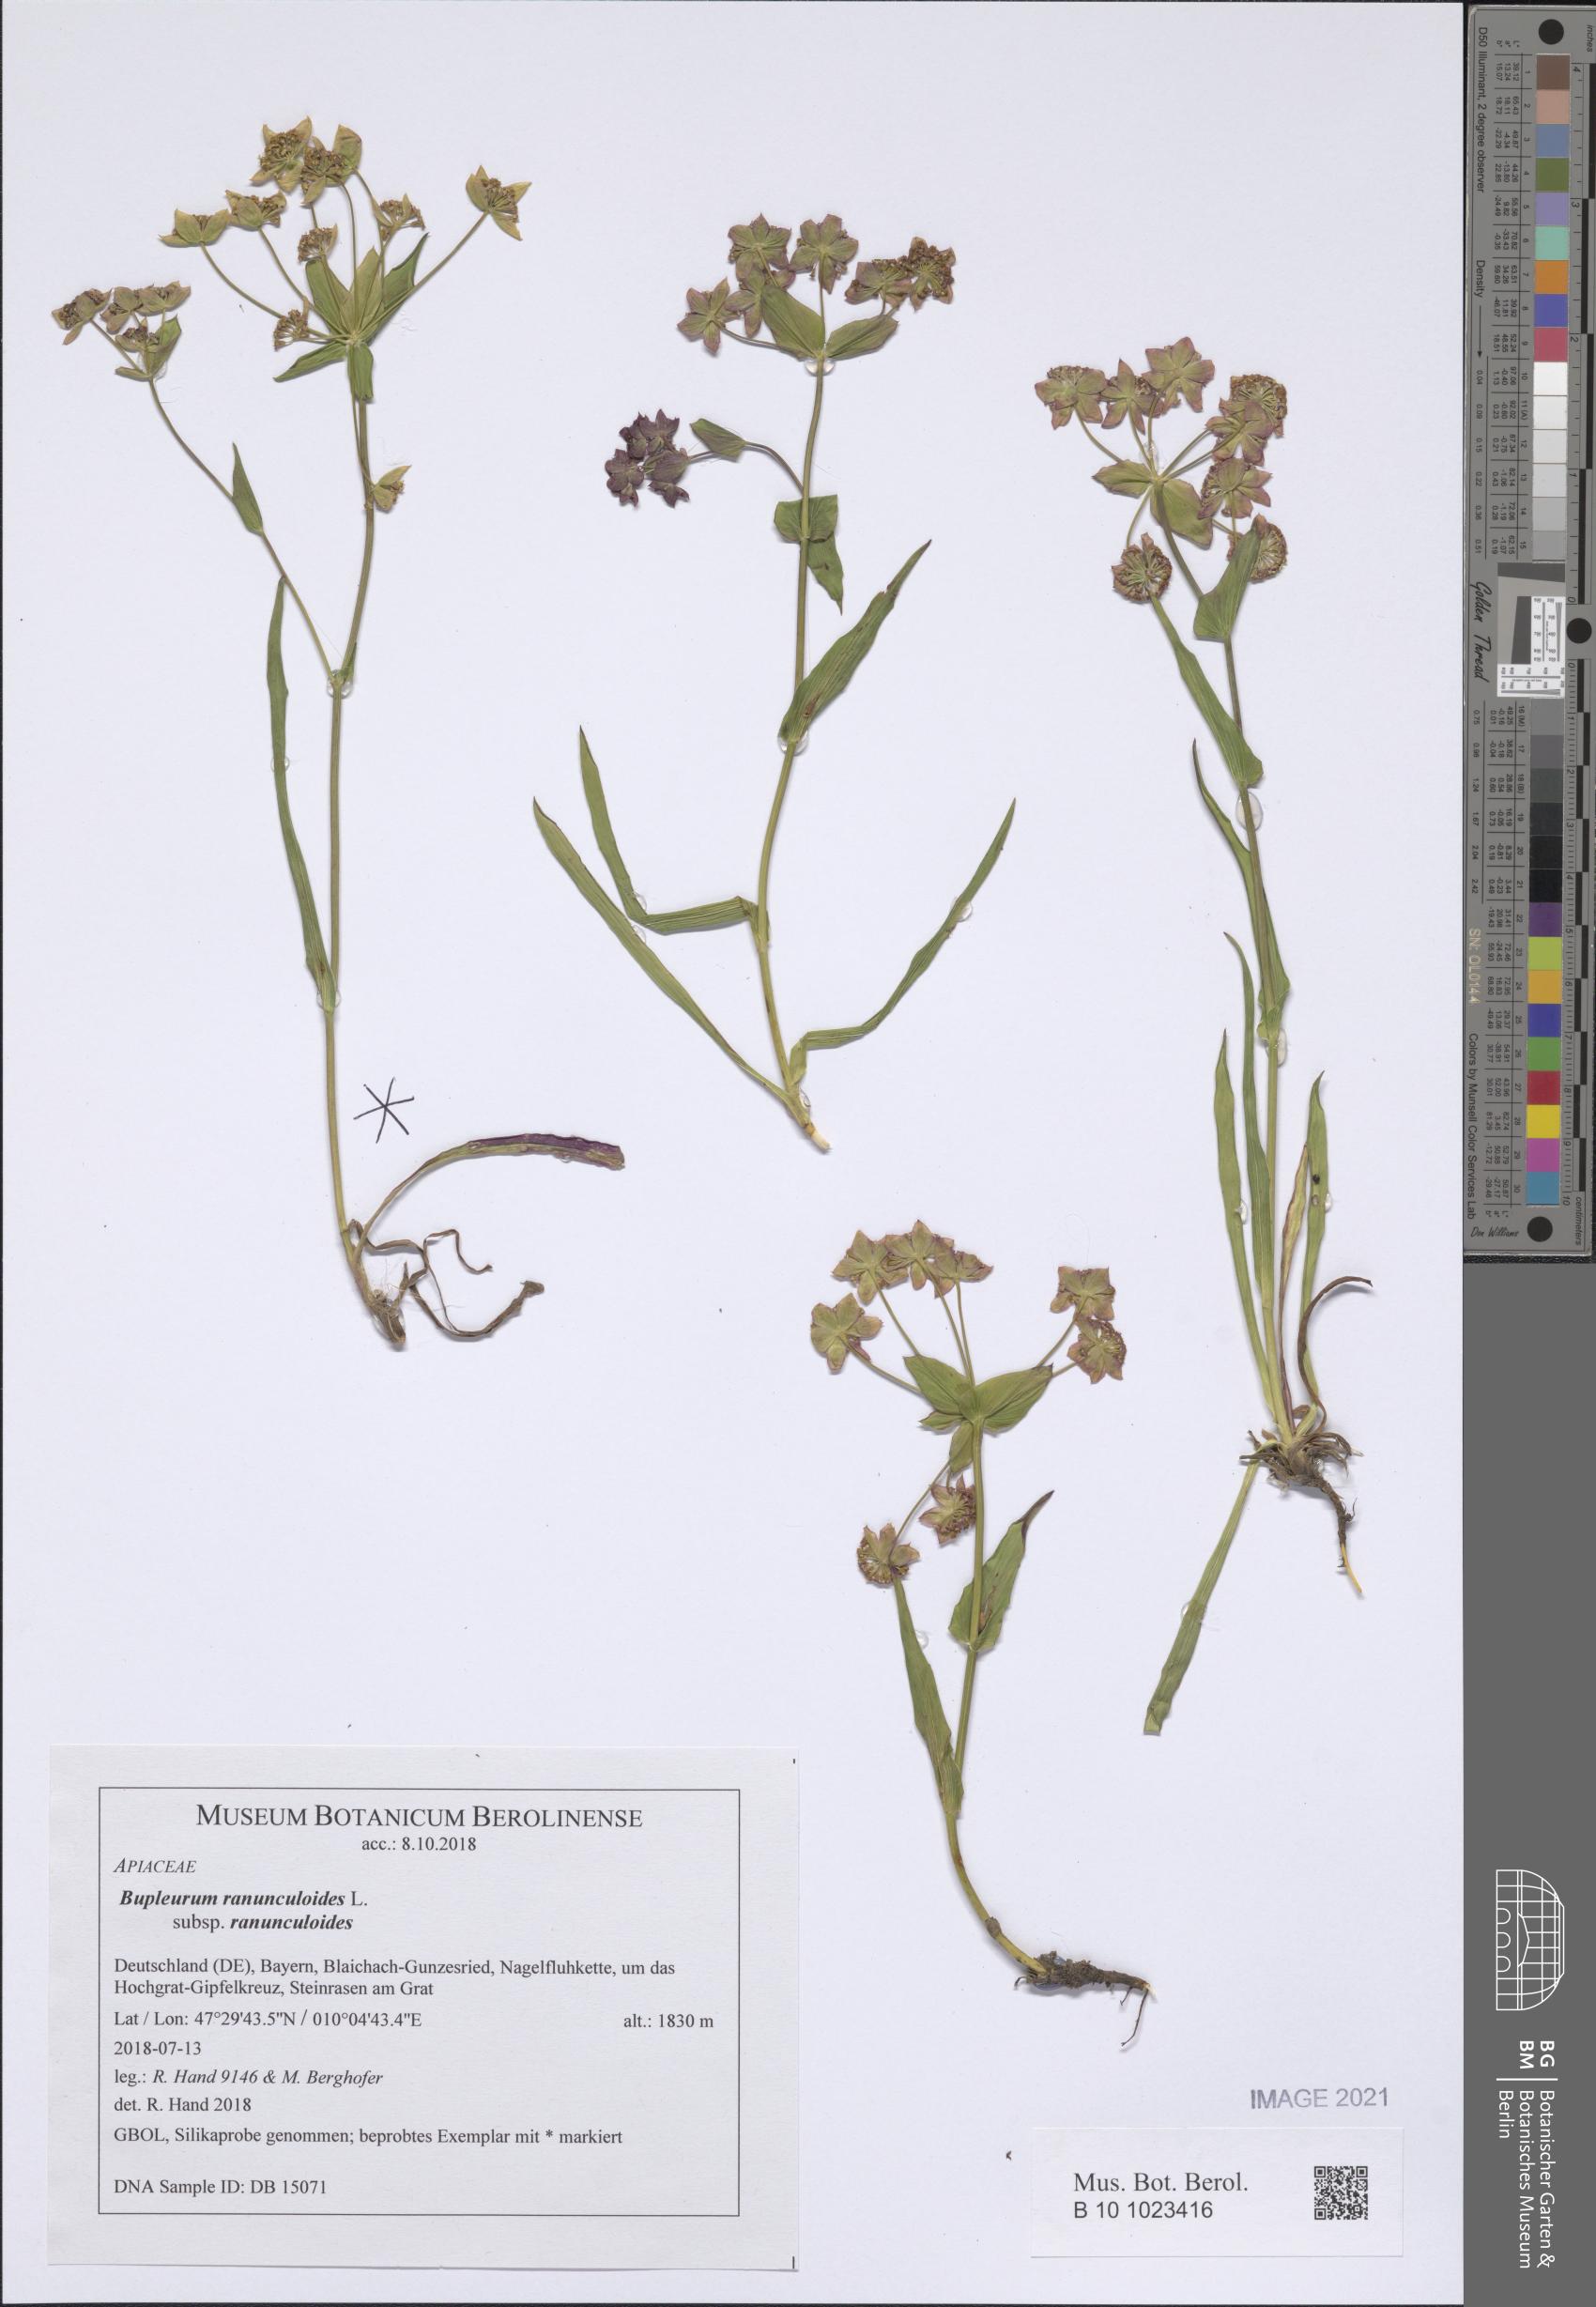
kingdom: Plantae
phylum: Tracheophyta
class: Magnoliopsida
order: Apiales
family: Apiaceae
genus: Bupleurum
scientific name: Bupleurum ranunculoides
